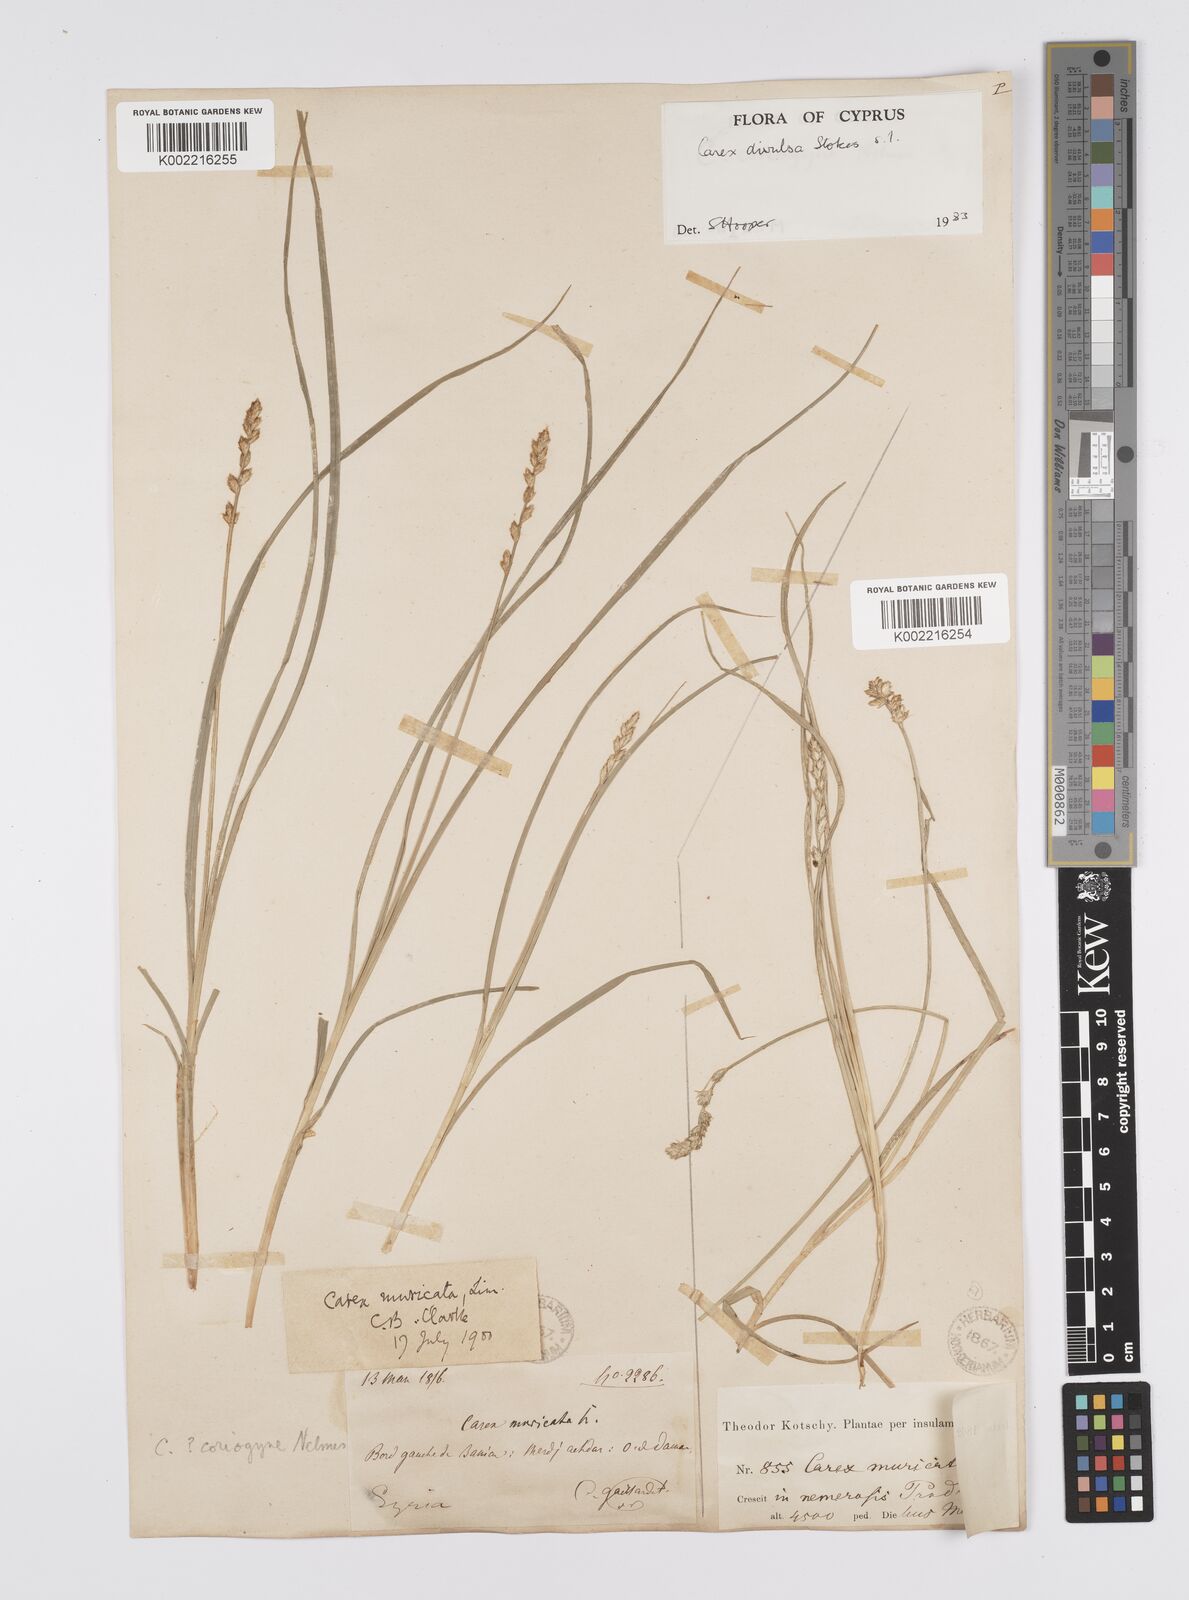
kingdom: Plantae
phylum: Tracheophyta
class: Liliopsida
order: Poales
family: Cyperaceae
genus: Carex
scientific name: Carex divulsa
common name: Grassland sedge
